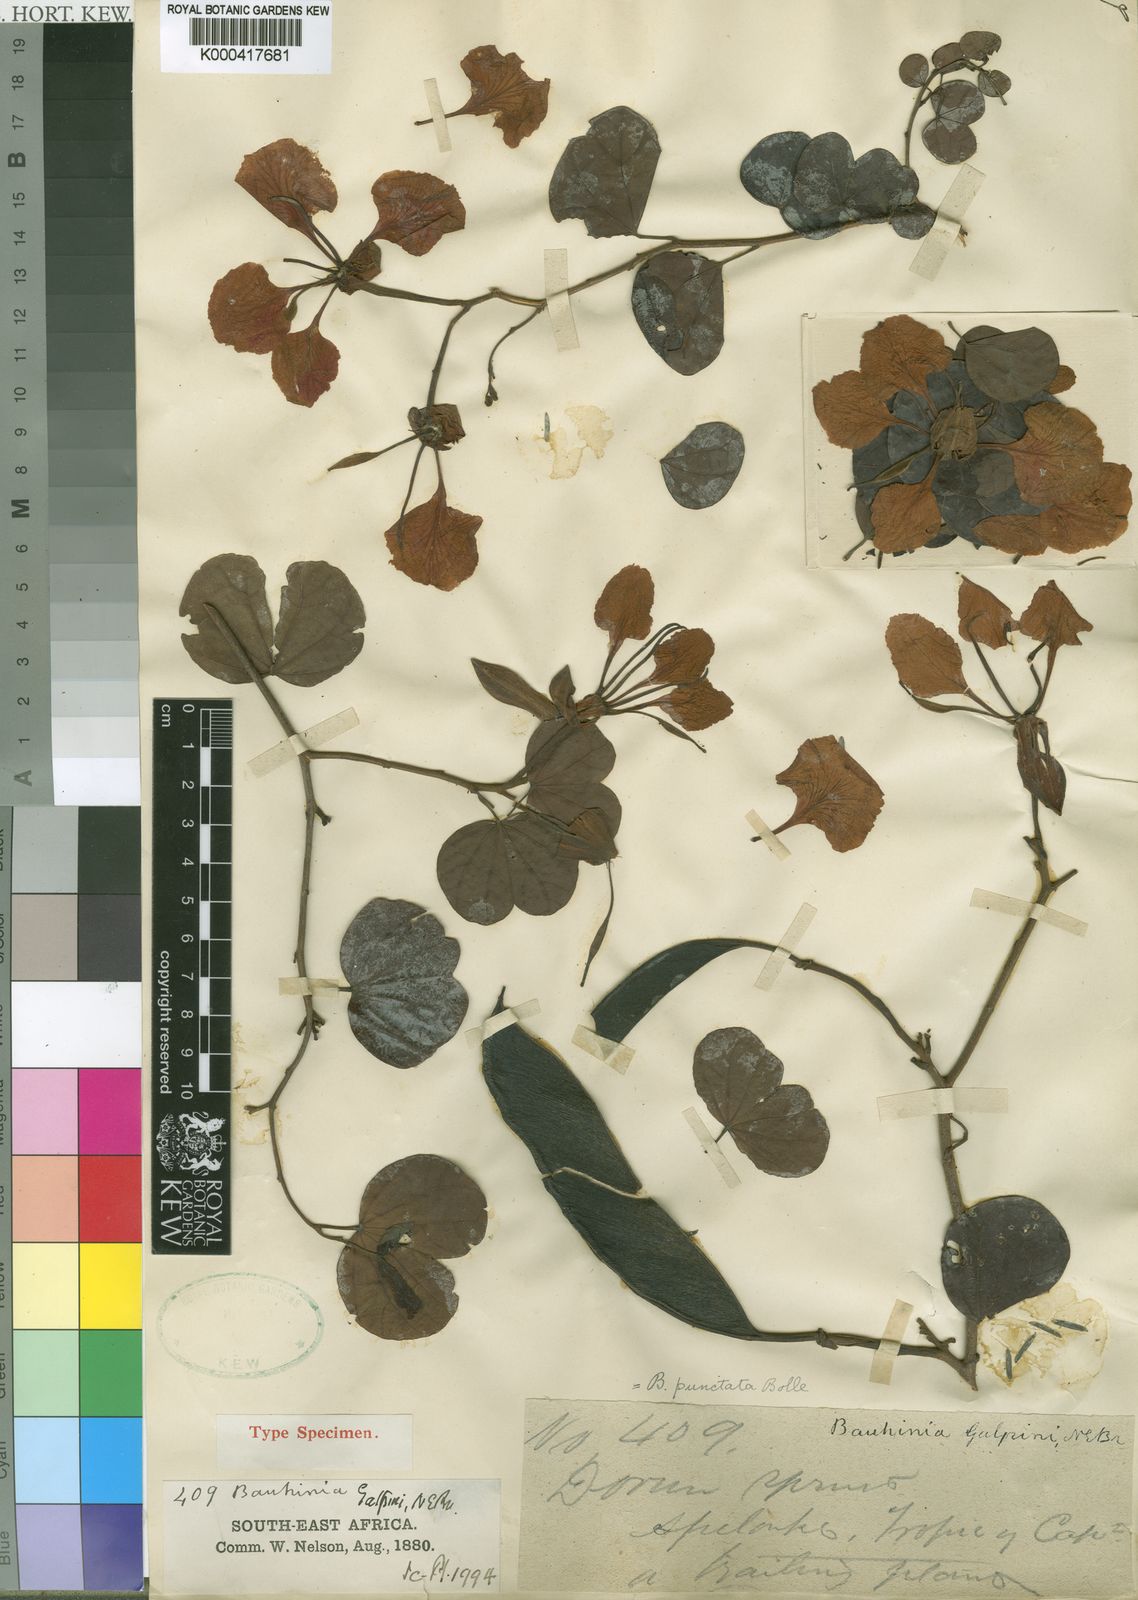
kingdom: Plantae
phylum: Tracheophyta
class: Magnoliopsida
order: Fabales
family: Fabaceae
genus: Bauhinia
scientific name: Bauhinia galpinii
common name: African plume
